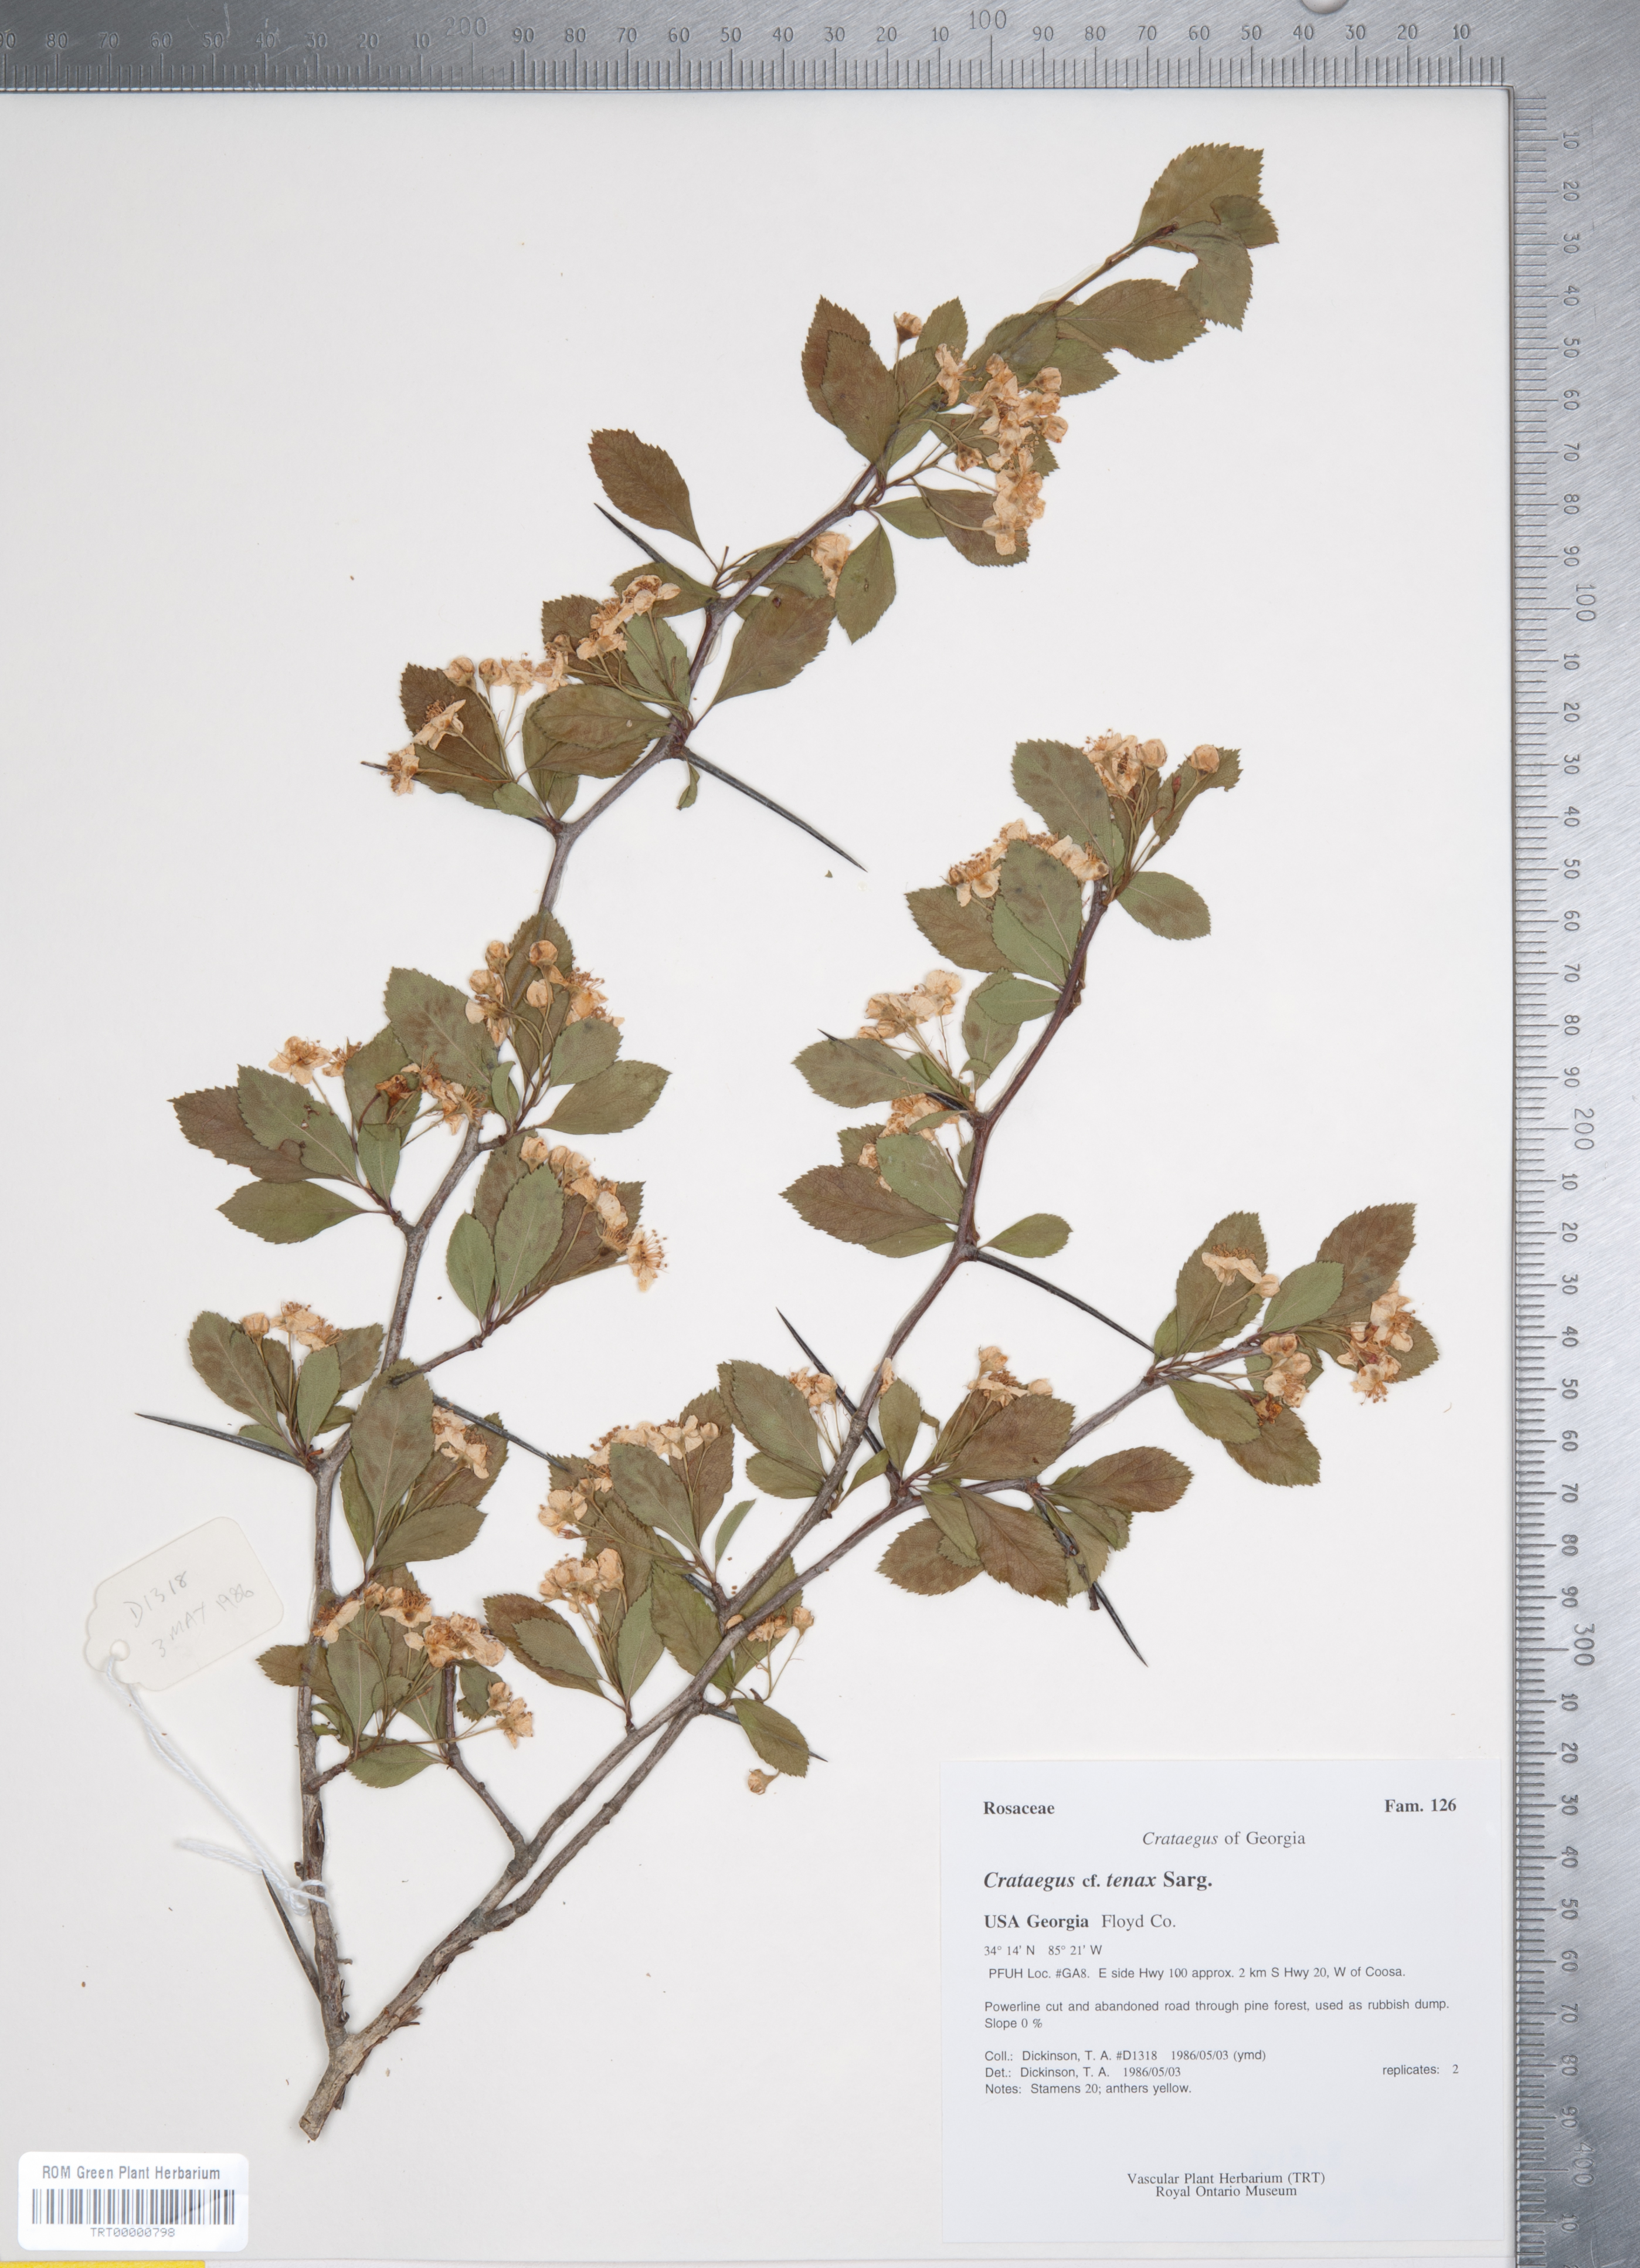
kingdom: Plantae
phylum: Tracheophyta
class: Magnoliopsida
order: Rosales
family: Rosaceae
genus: Crataegus
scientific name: Crataegus crus-galli
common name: Cockspurthorn
